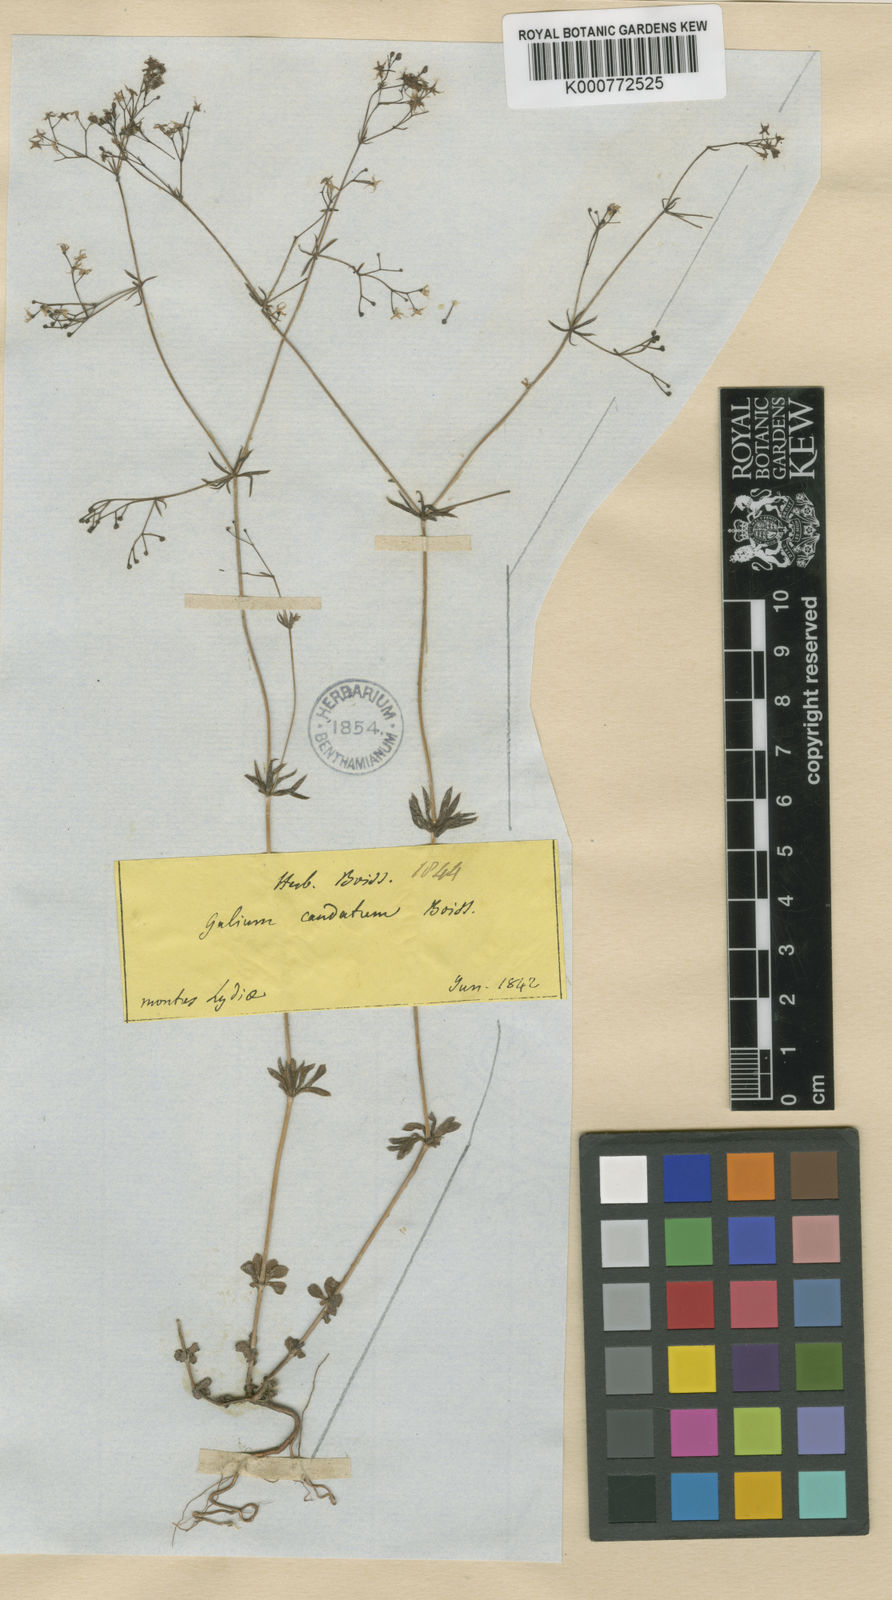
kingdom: Plantae
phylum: Tracheophyta
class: Magnoliopsida
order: Gentianales
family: Rubiaceae
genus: Galium
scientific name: Galium eriocarpum
